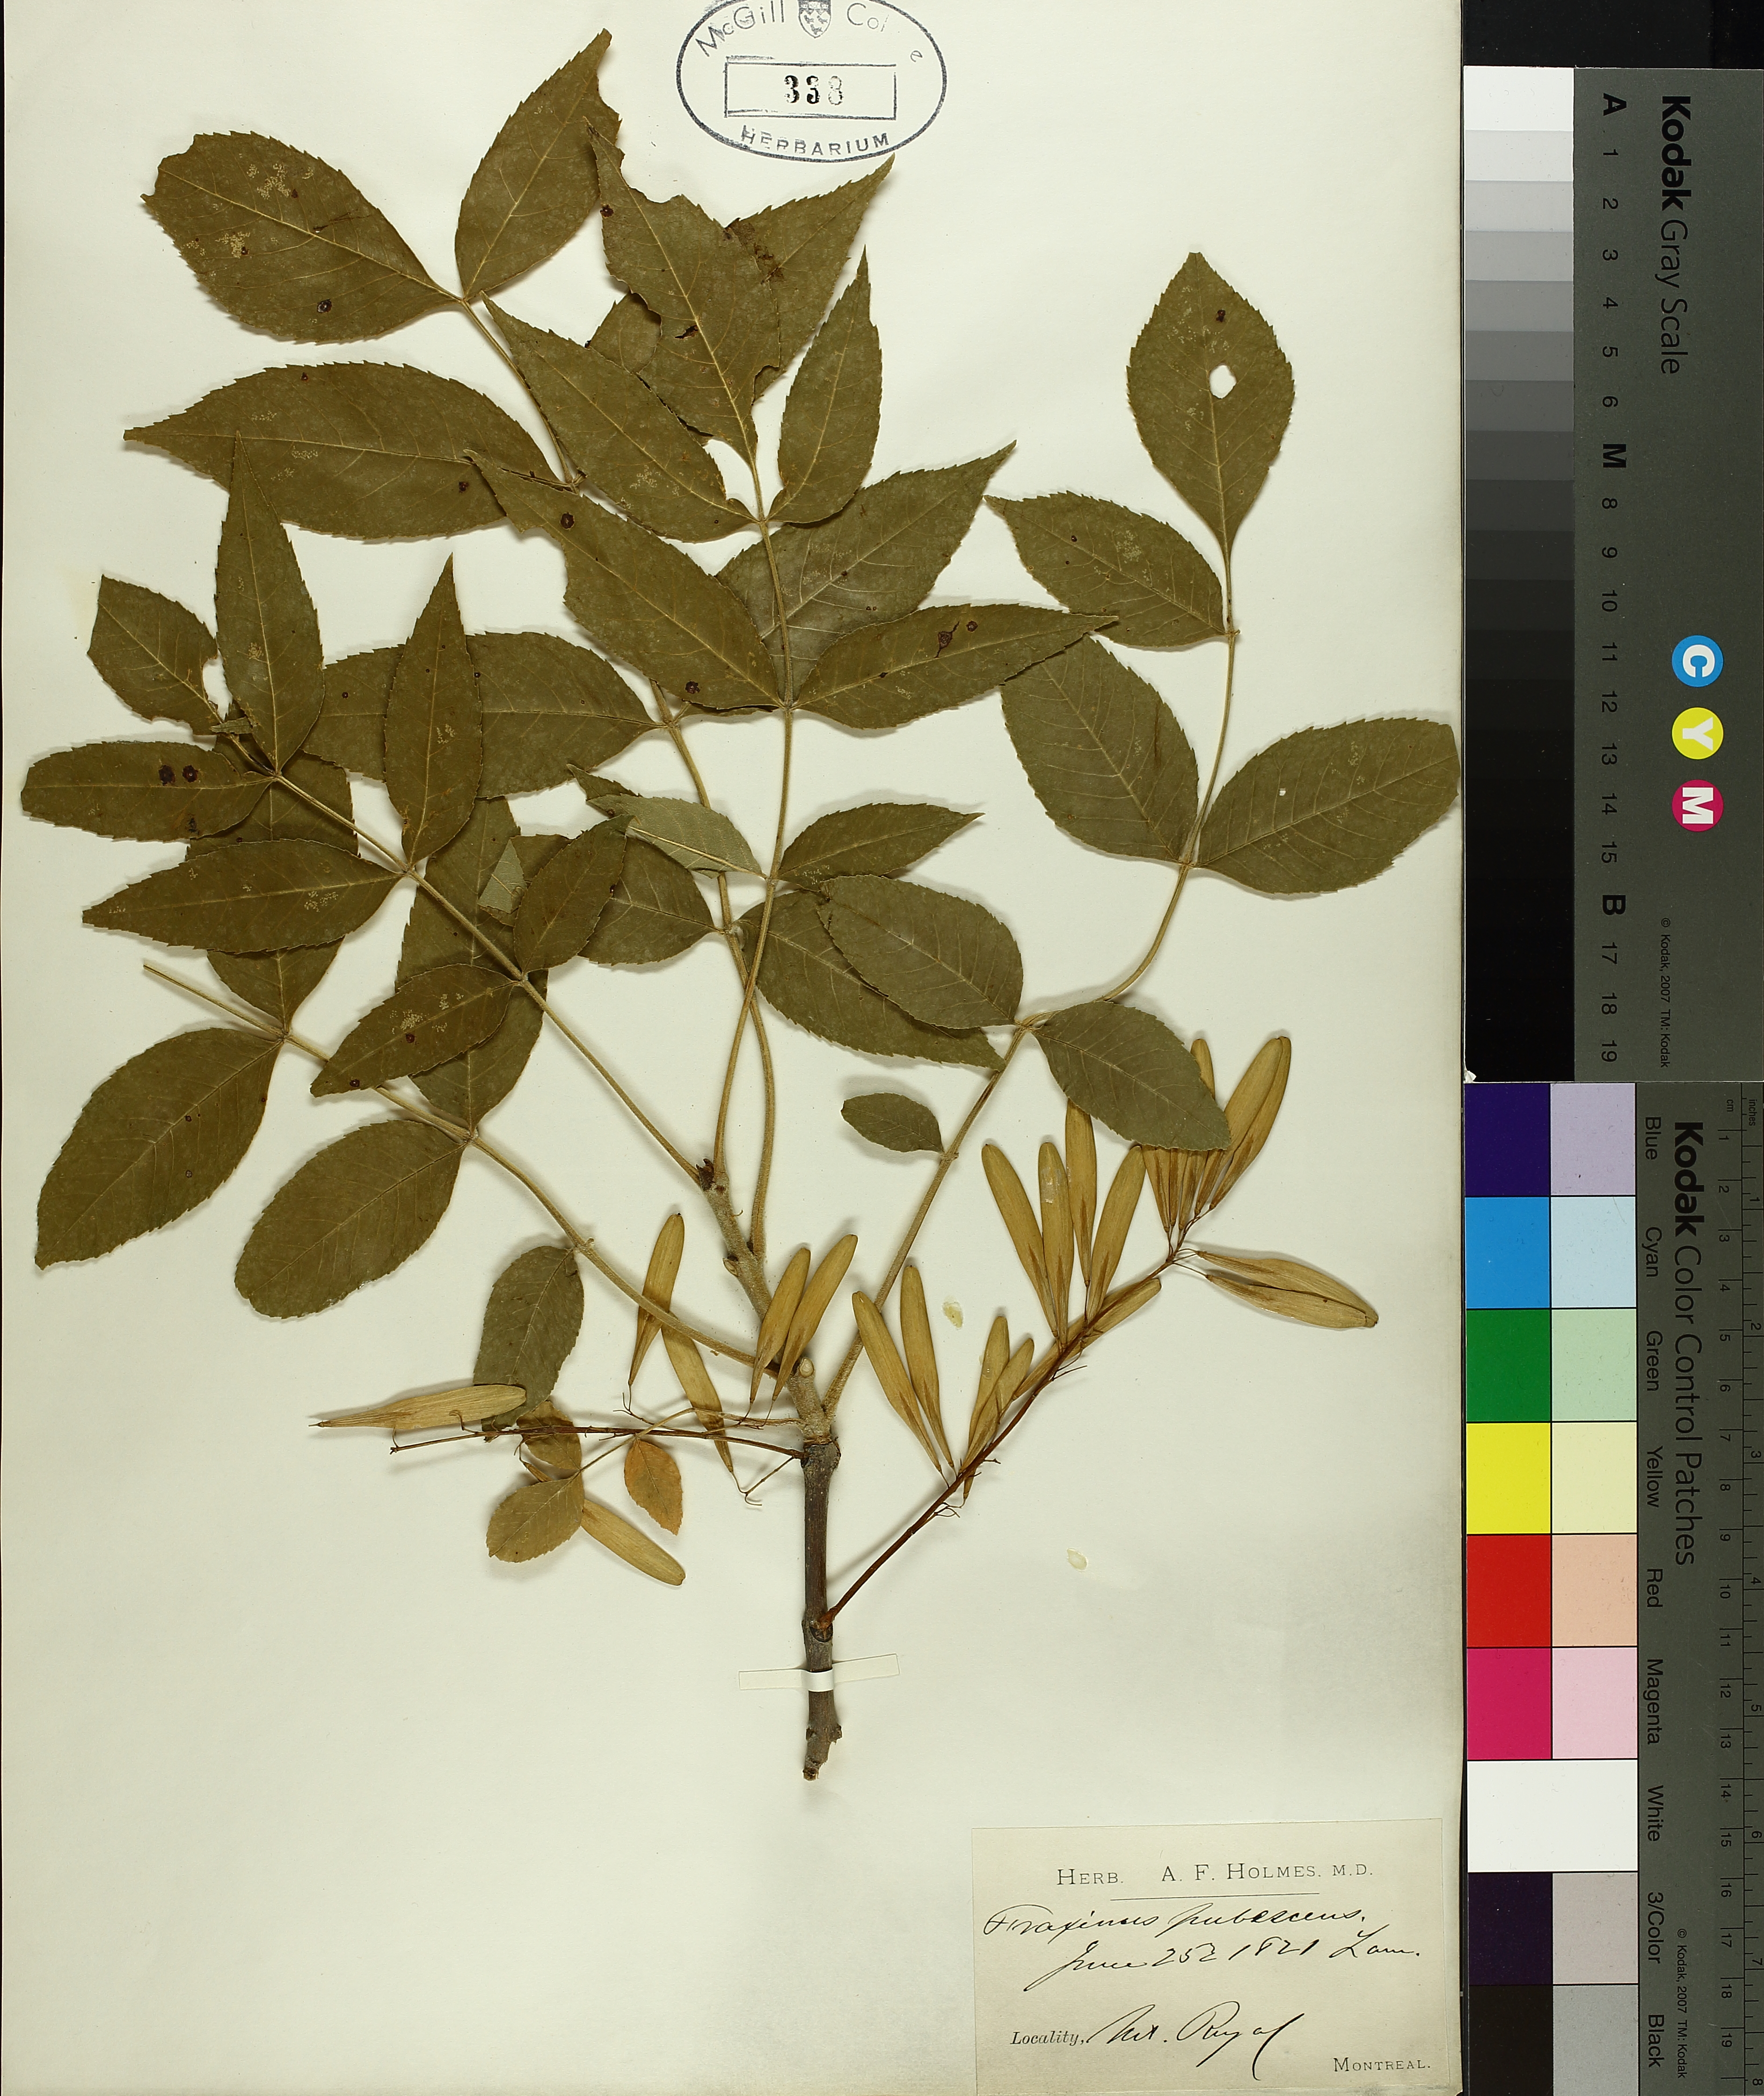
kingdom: Plantae
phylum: Tracheophyta
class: Magnoliopsida
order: Lamiales
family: Oleaceae
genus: Fraxinus
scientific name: Fraxinus pennsylvanica
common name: Green ash
